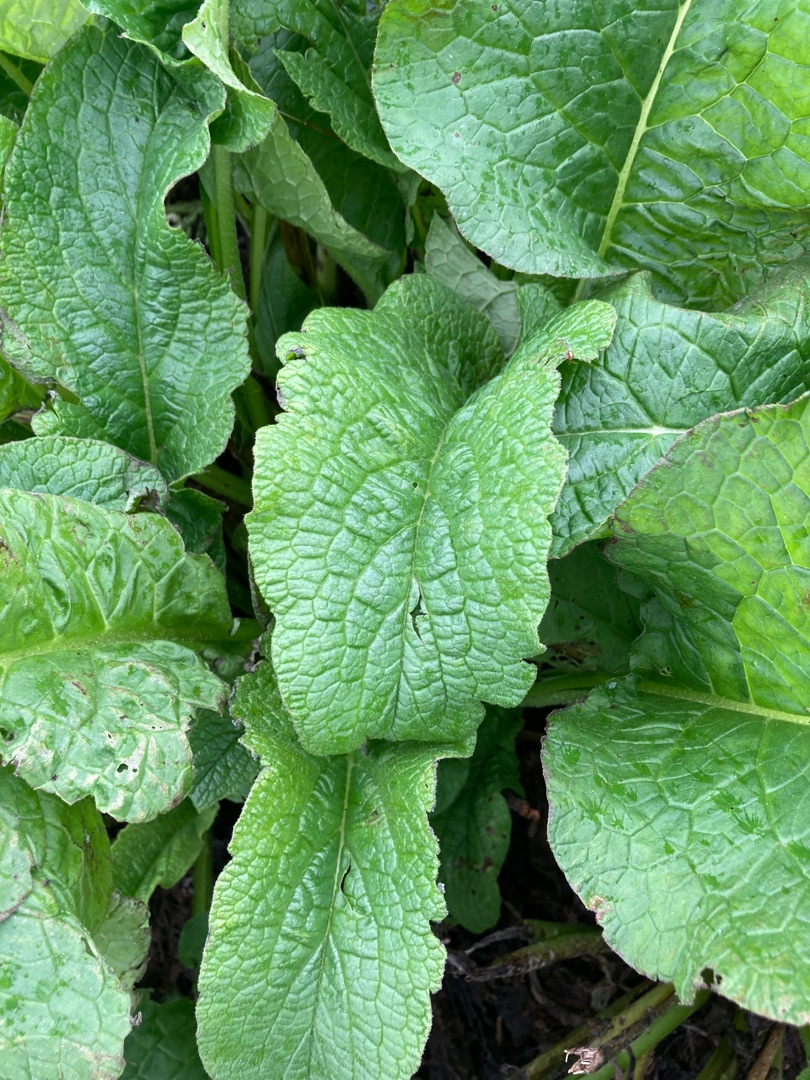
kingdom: Plantae
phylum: Tracheophyta
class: Magnoliopsida
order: Boraginales
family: Boraginaceae
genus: Symphytum
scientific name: Symphytum uplandicum
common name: Foder-kulsukker
